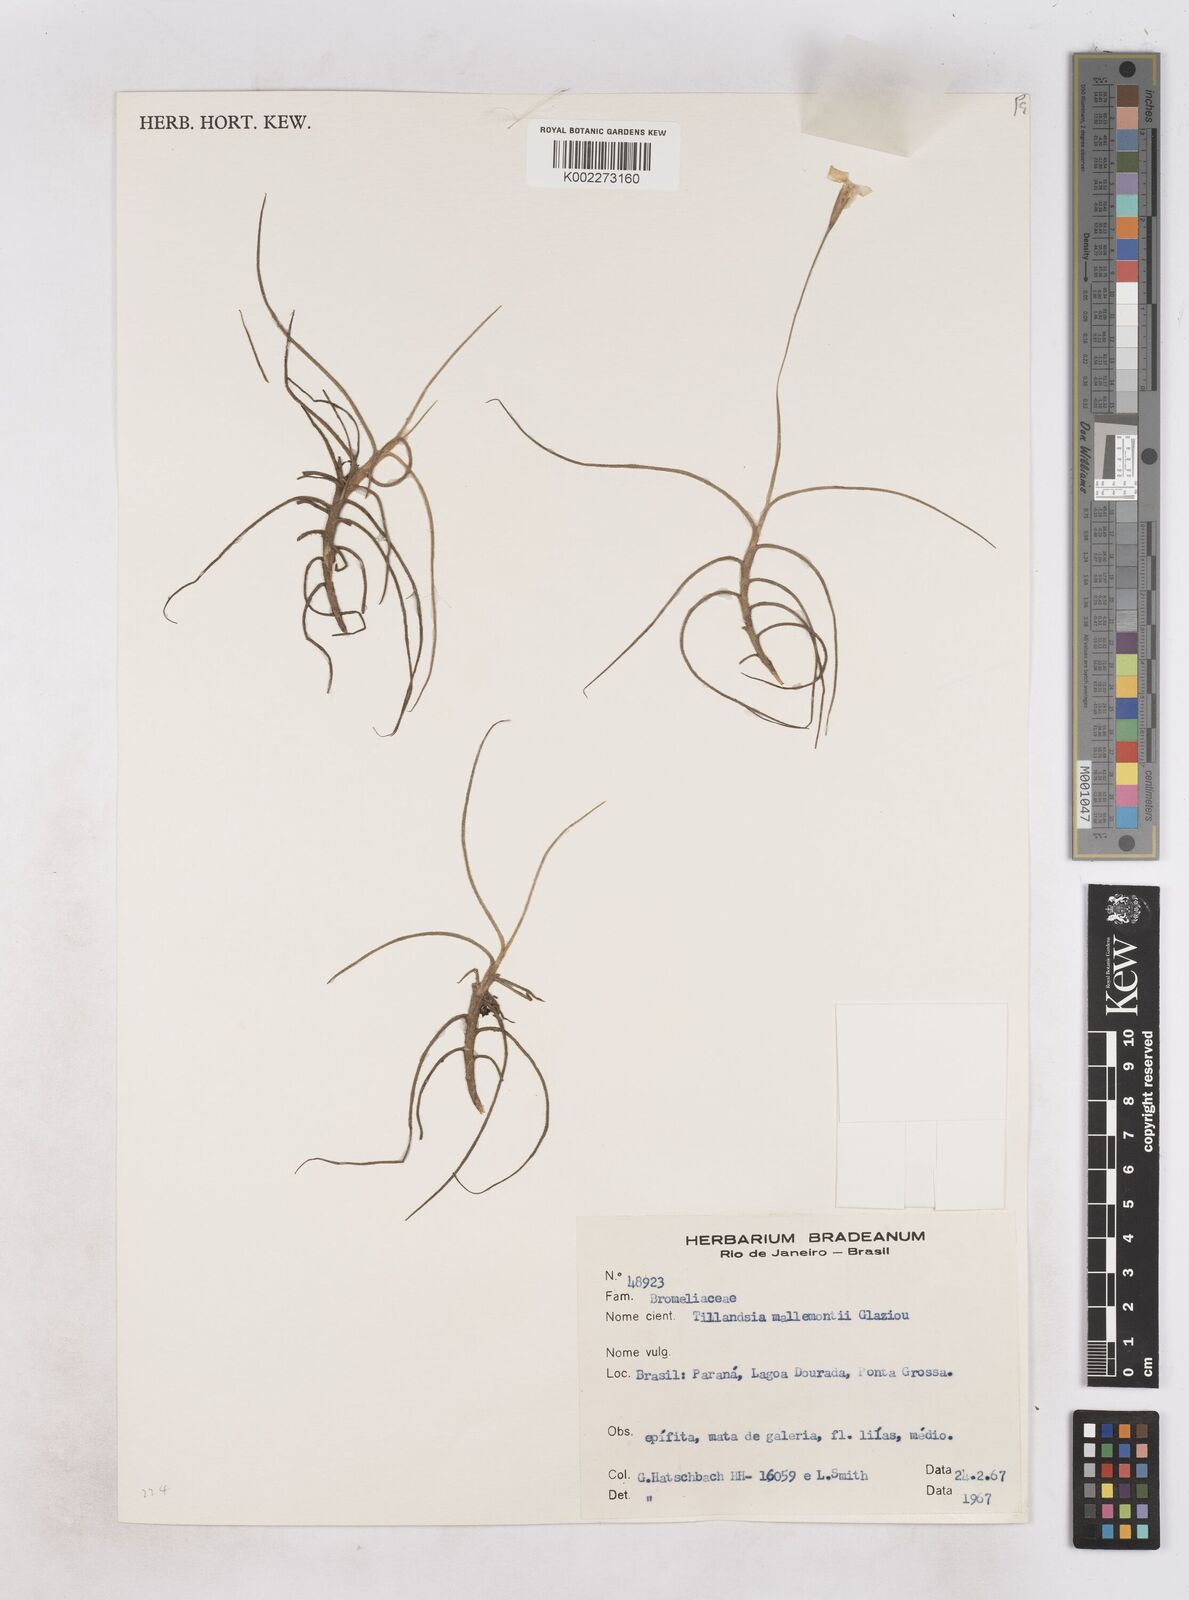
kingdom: Plantae
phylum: Tracheophyta
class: Liliopsida
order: Poales
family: Bromeliaceae
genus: Tillandsia
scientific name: Tillandsia mallemontii
